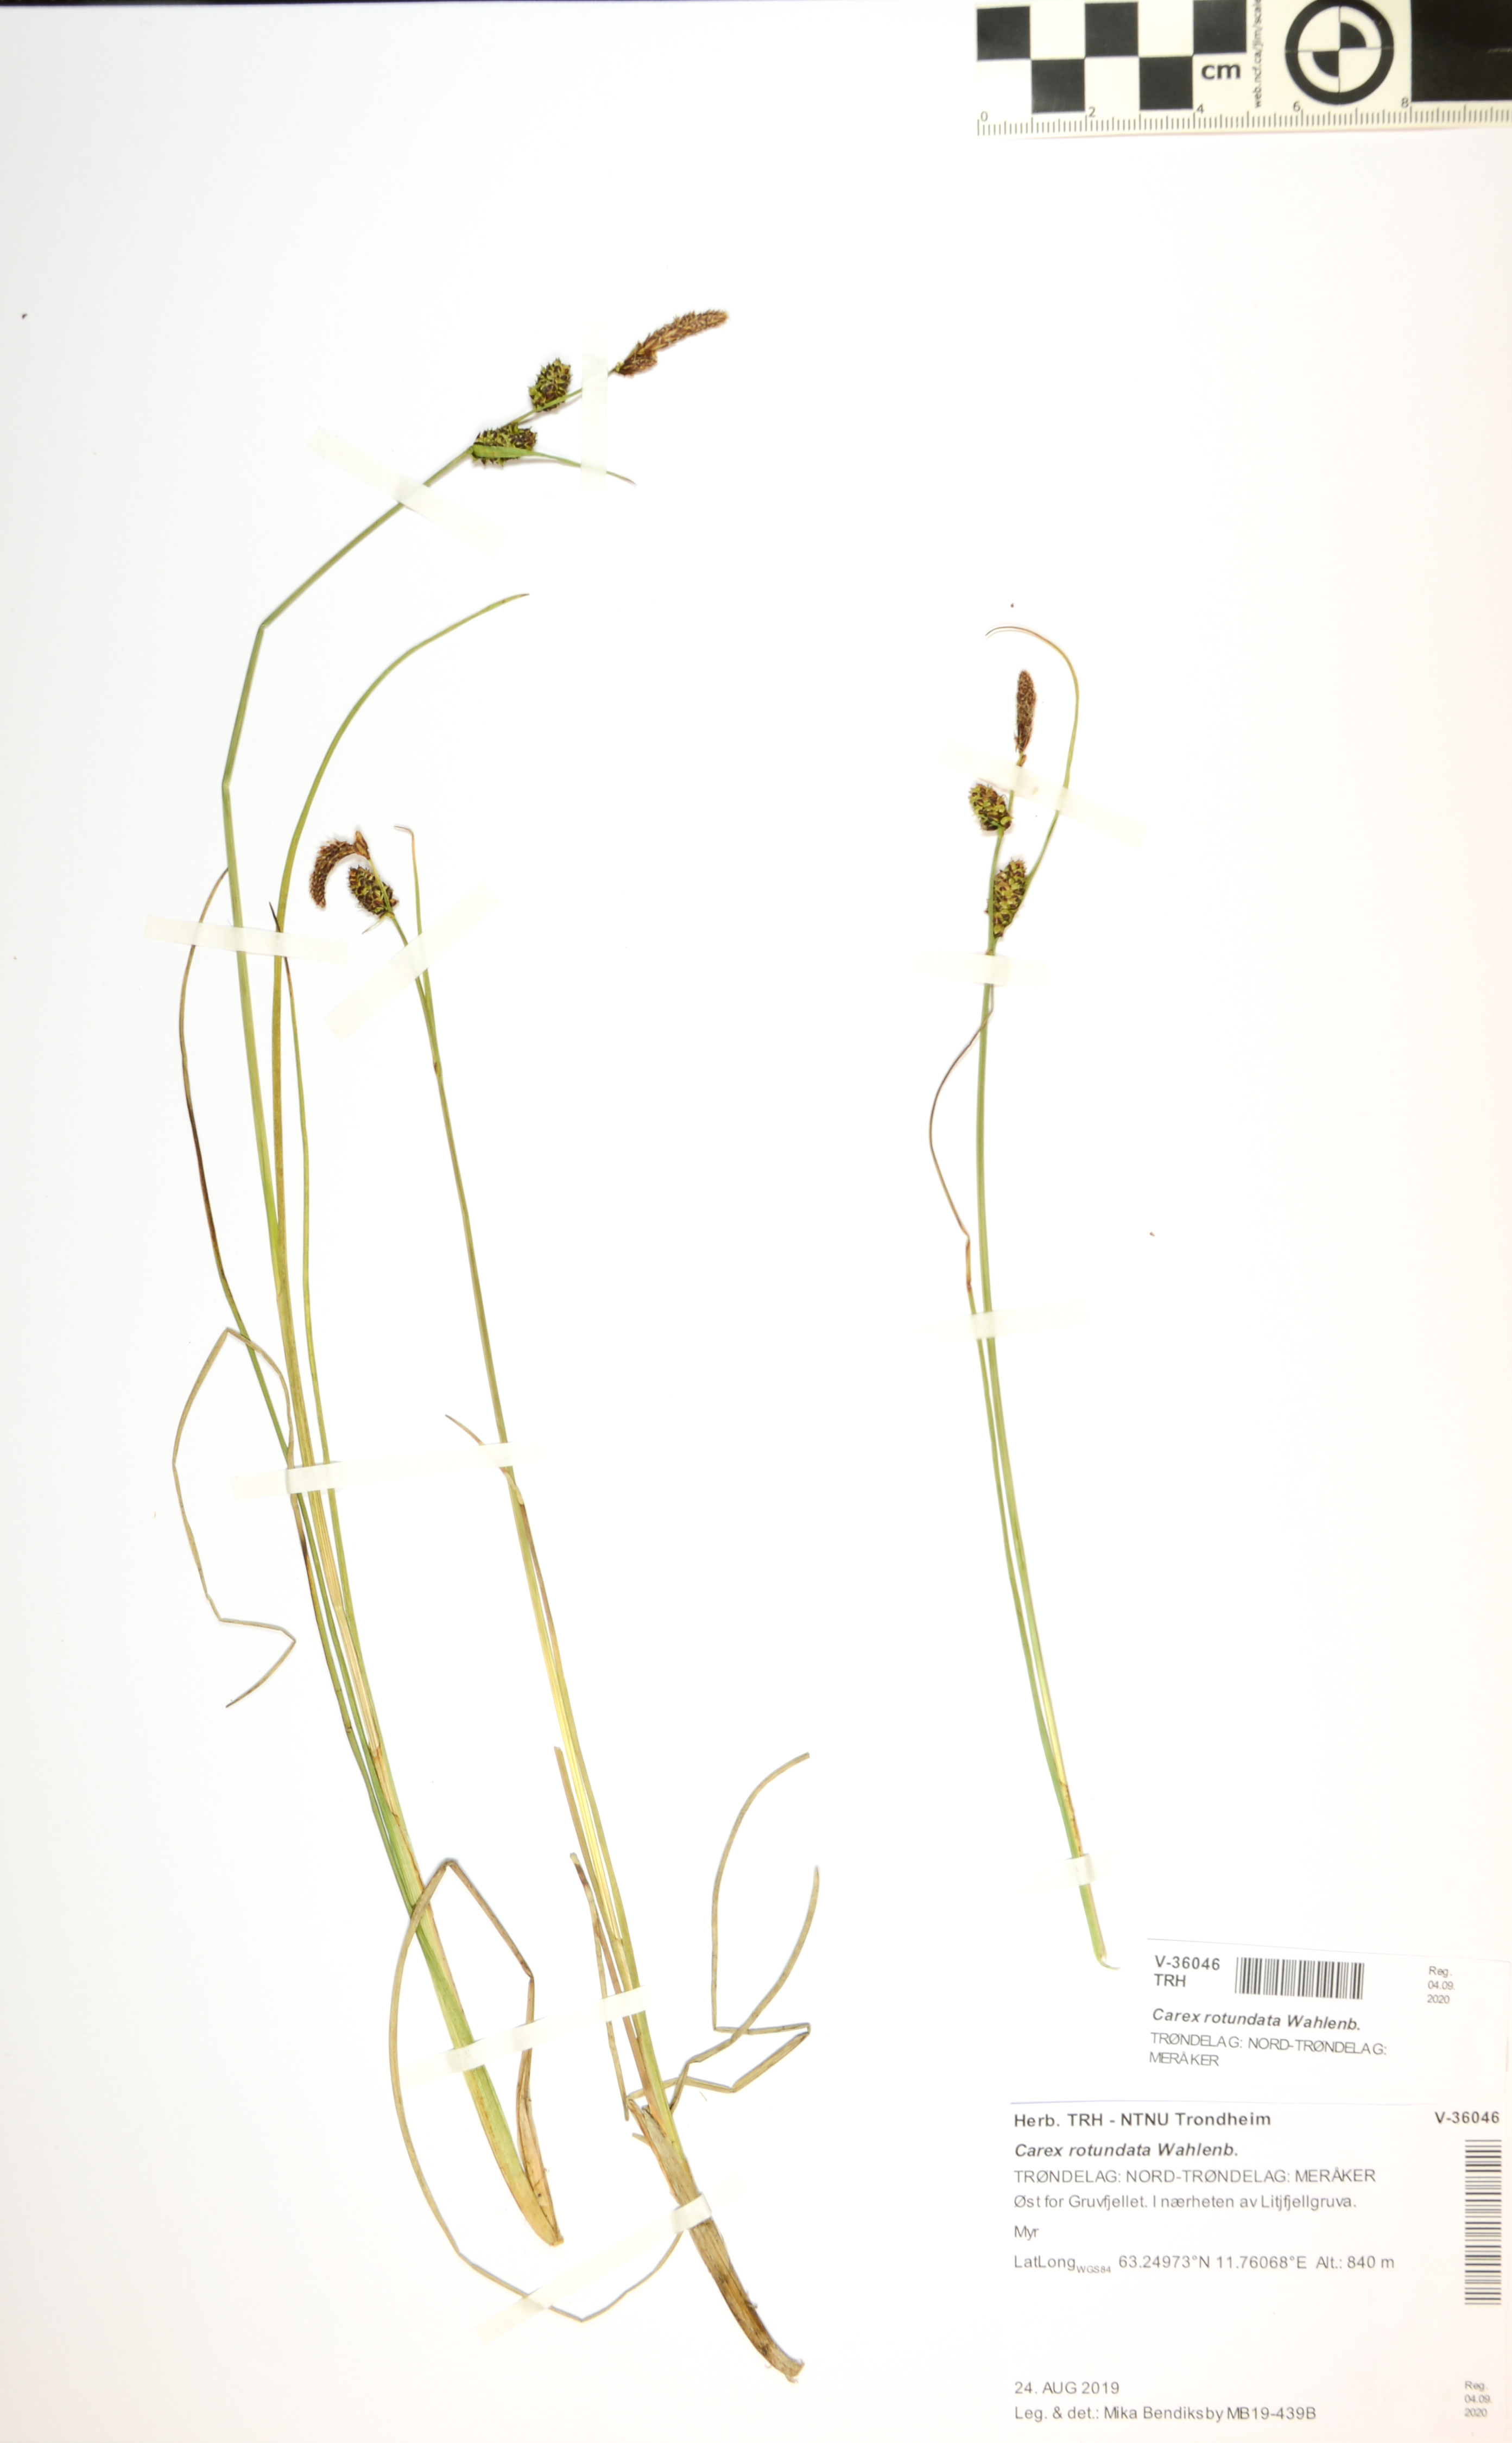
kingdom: Plantae
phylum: Tracheophyta
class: Liliopsida
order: Poales
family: Cyperaceae
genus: Carex
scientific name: Carex rotundata
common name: Round-fruited sedge
